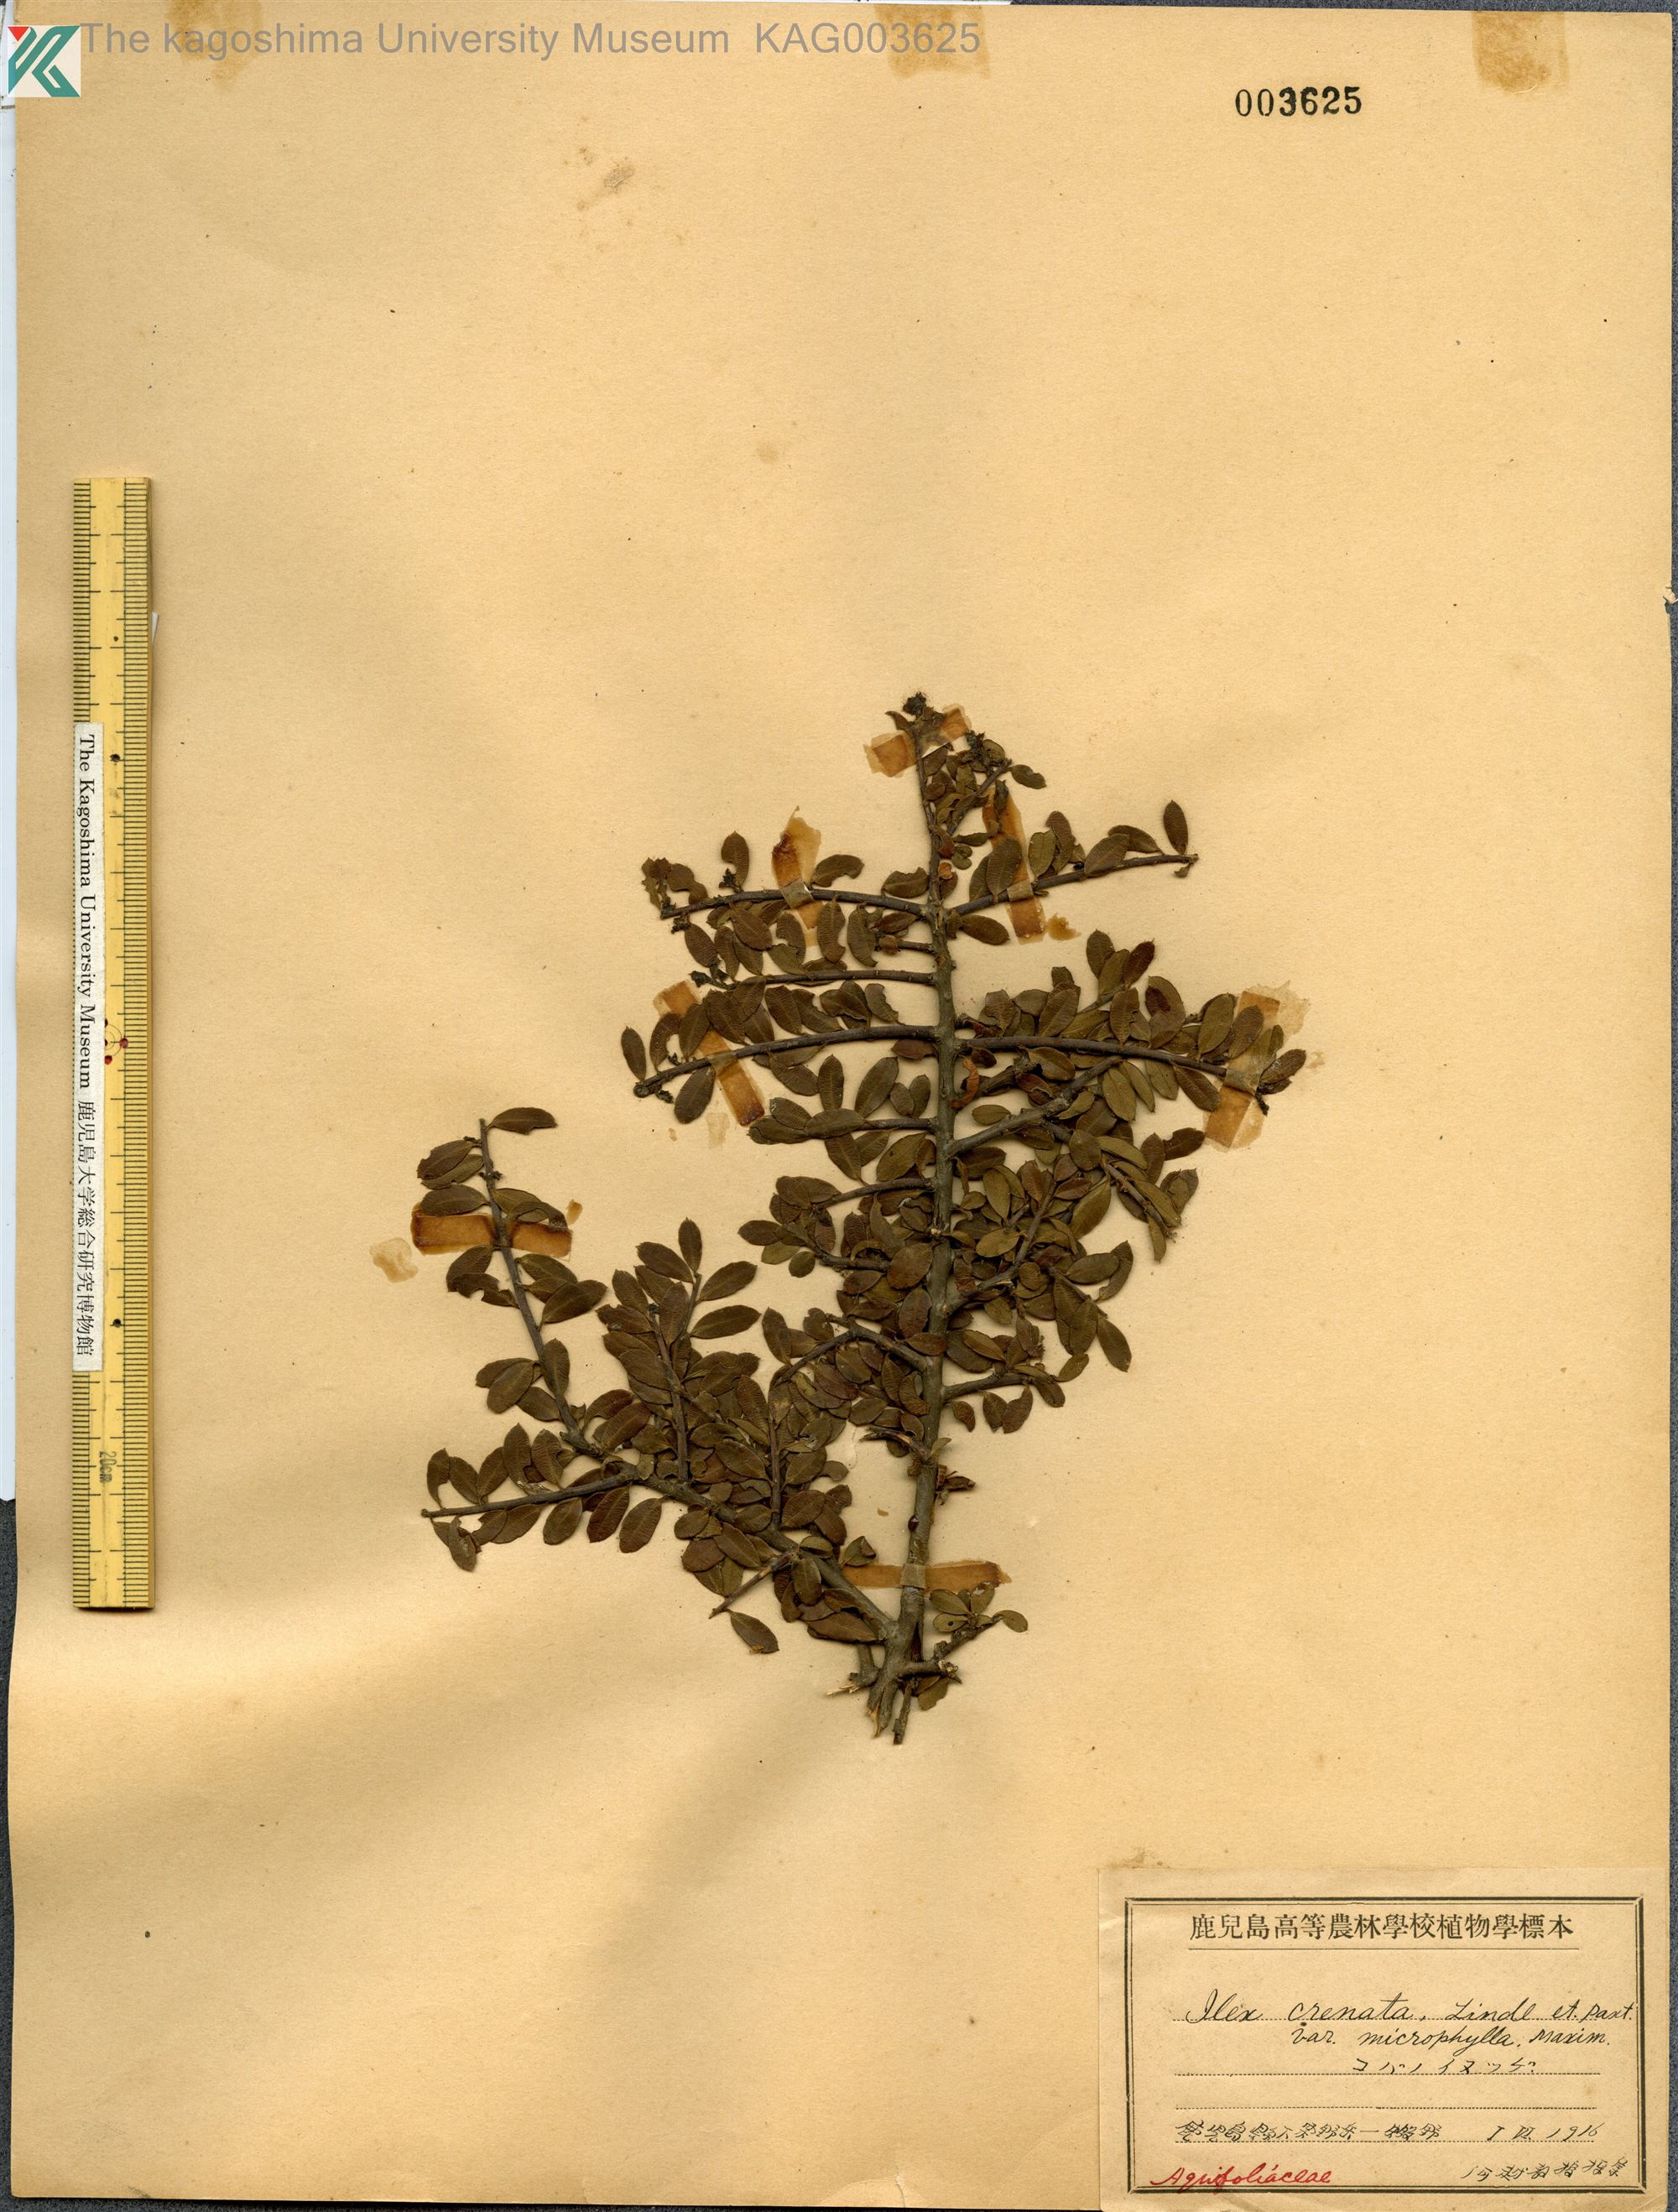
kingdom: Plantae
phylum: Tracheophyta
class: Magnoliopsida
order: Aquifoliales
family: Aquifoliaceae
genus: Ilex
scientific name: Ilex crenata
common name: Japanese holly
